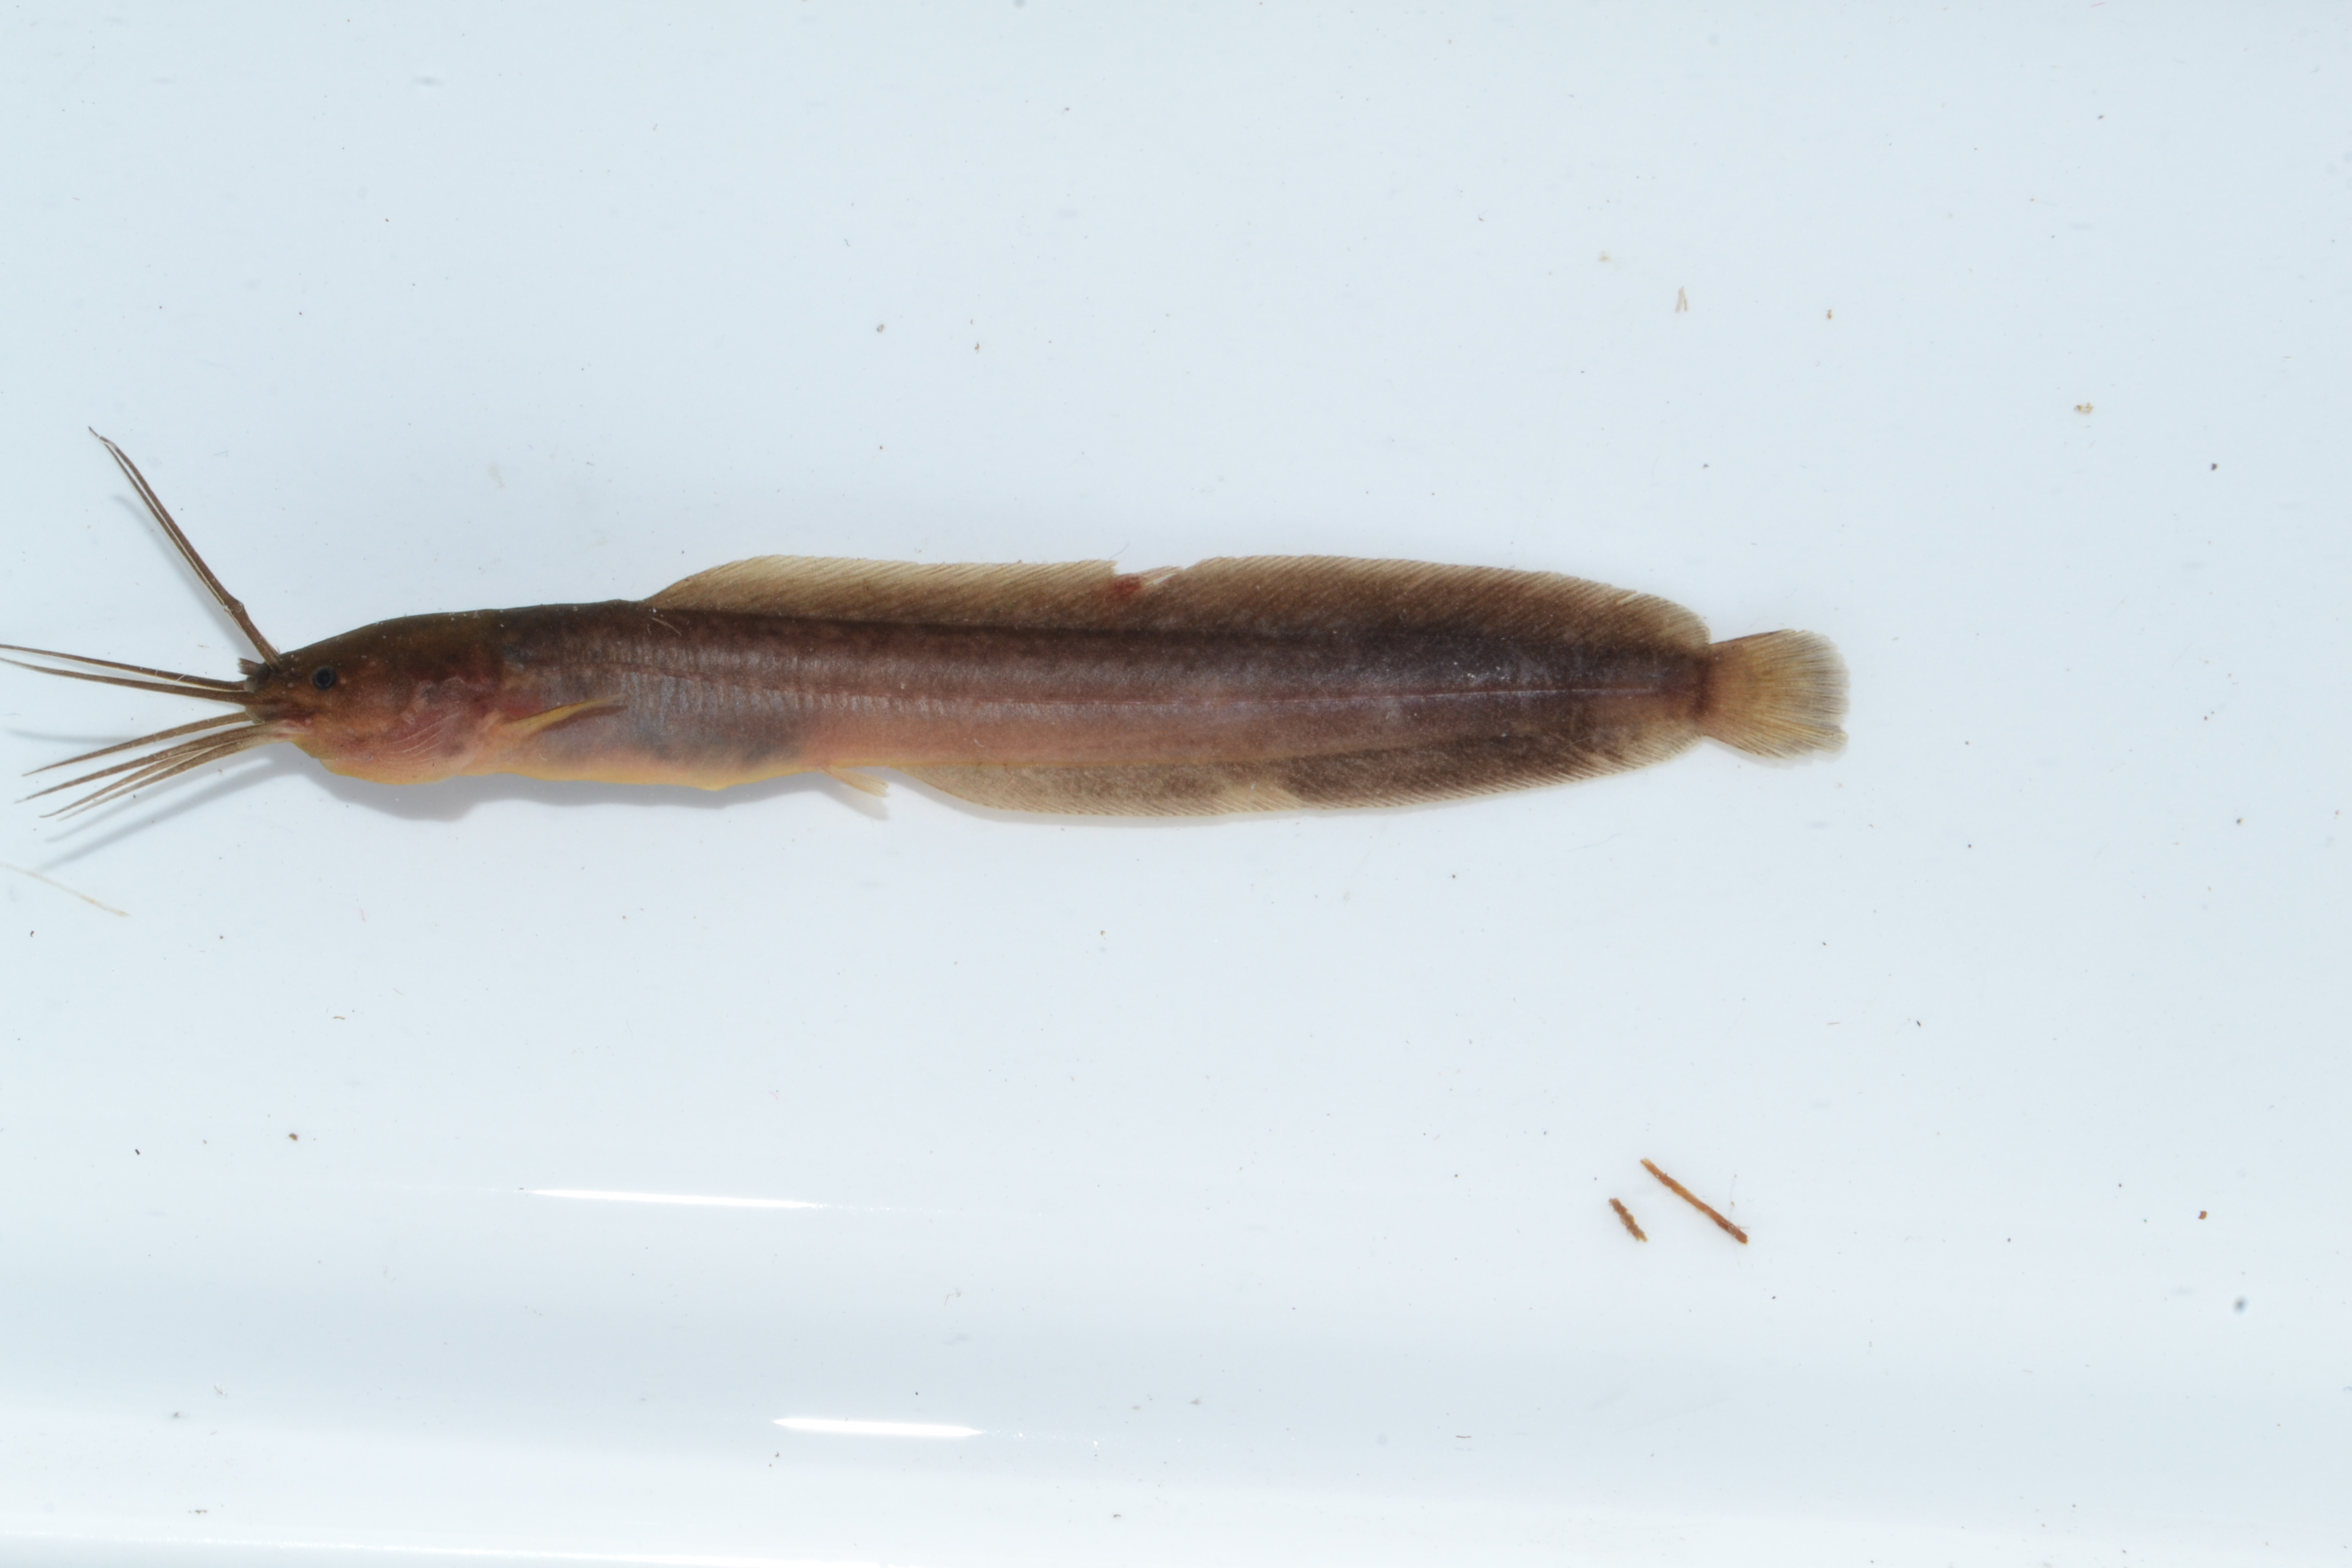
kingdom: Animalia
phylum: Chordata
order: Siluriformes
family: Clariidae
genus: Clarias
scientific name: Clarias theodorae
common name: Snake catfish
